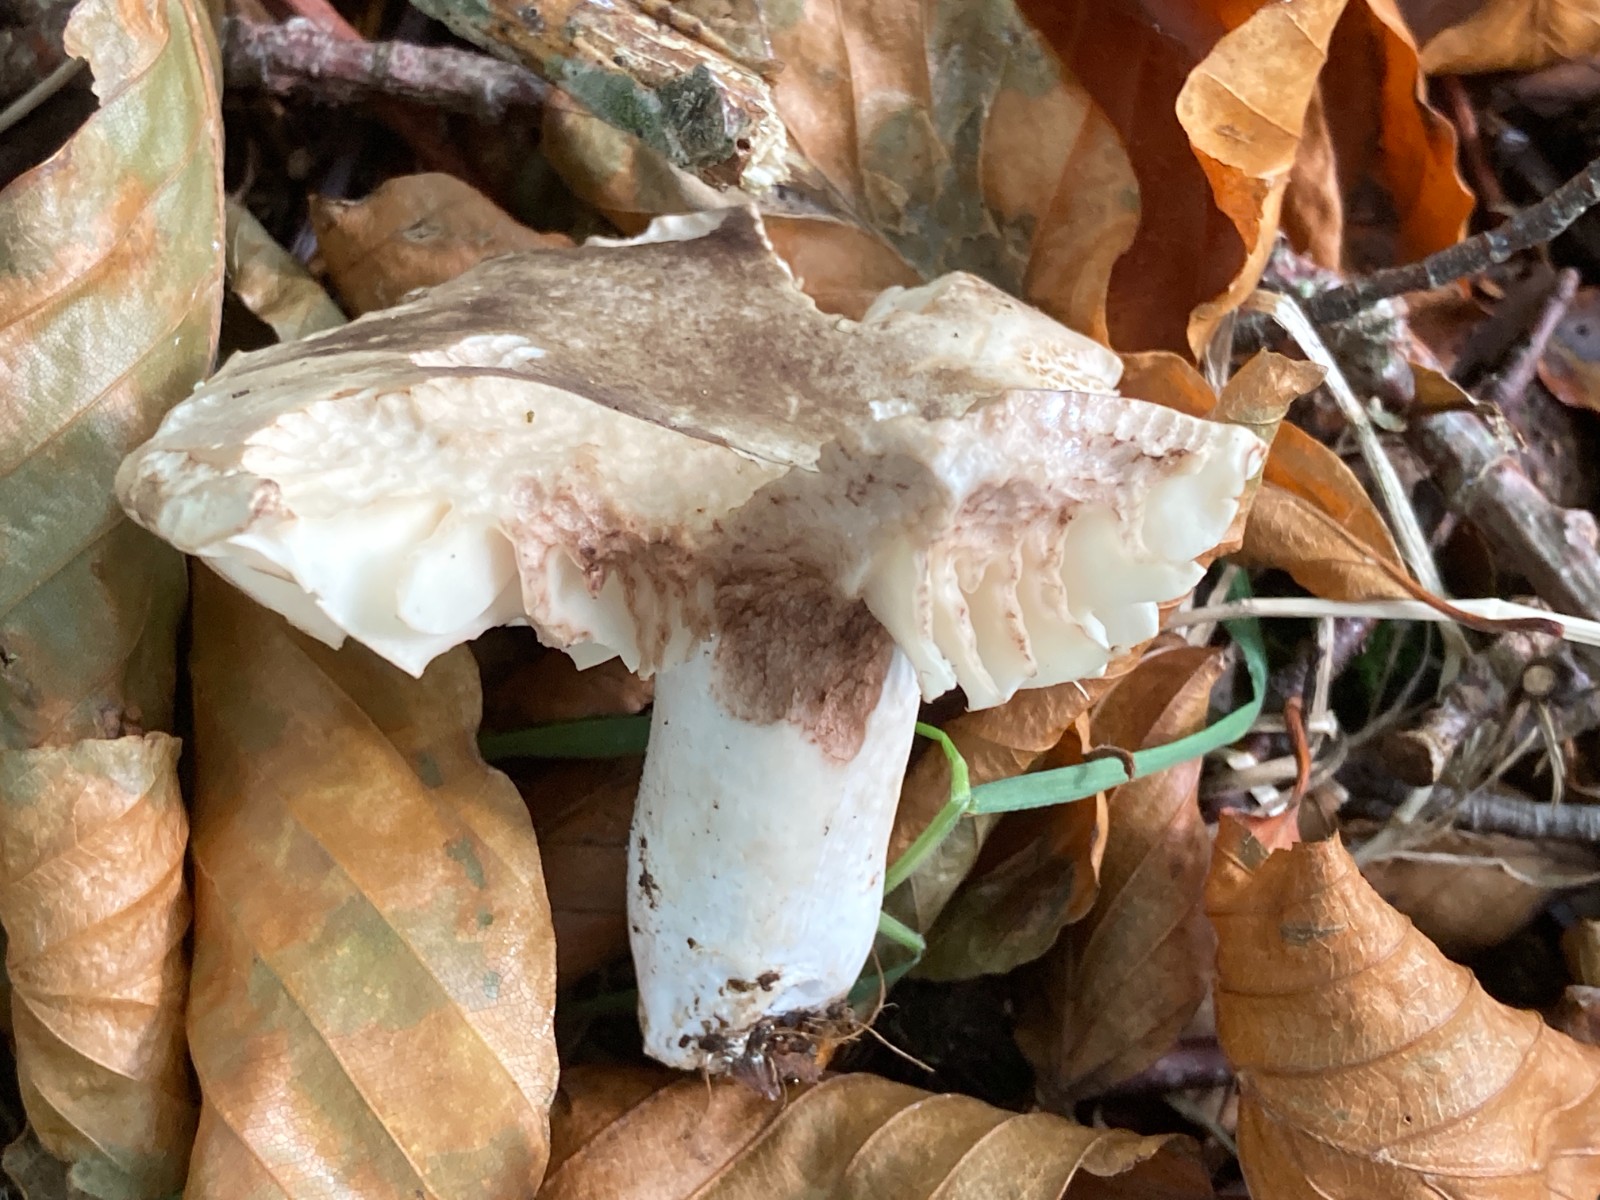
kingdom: Fungi
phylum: Basidiomycota
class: Agaricomycetes
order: Russulales
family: Russulaceae
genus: Russula
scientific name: Russula adusta
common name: sværtende skørhat
